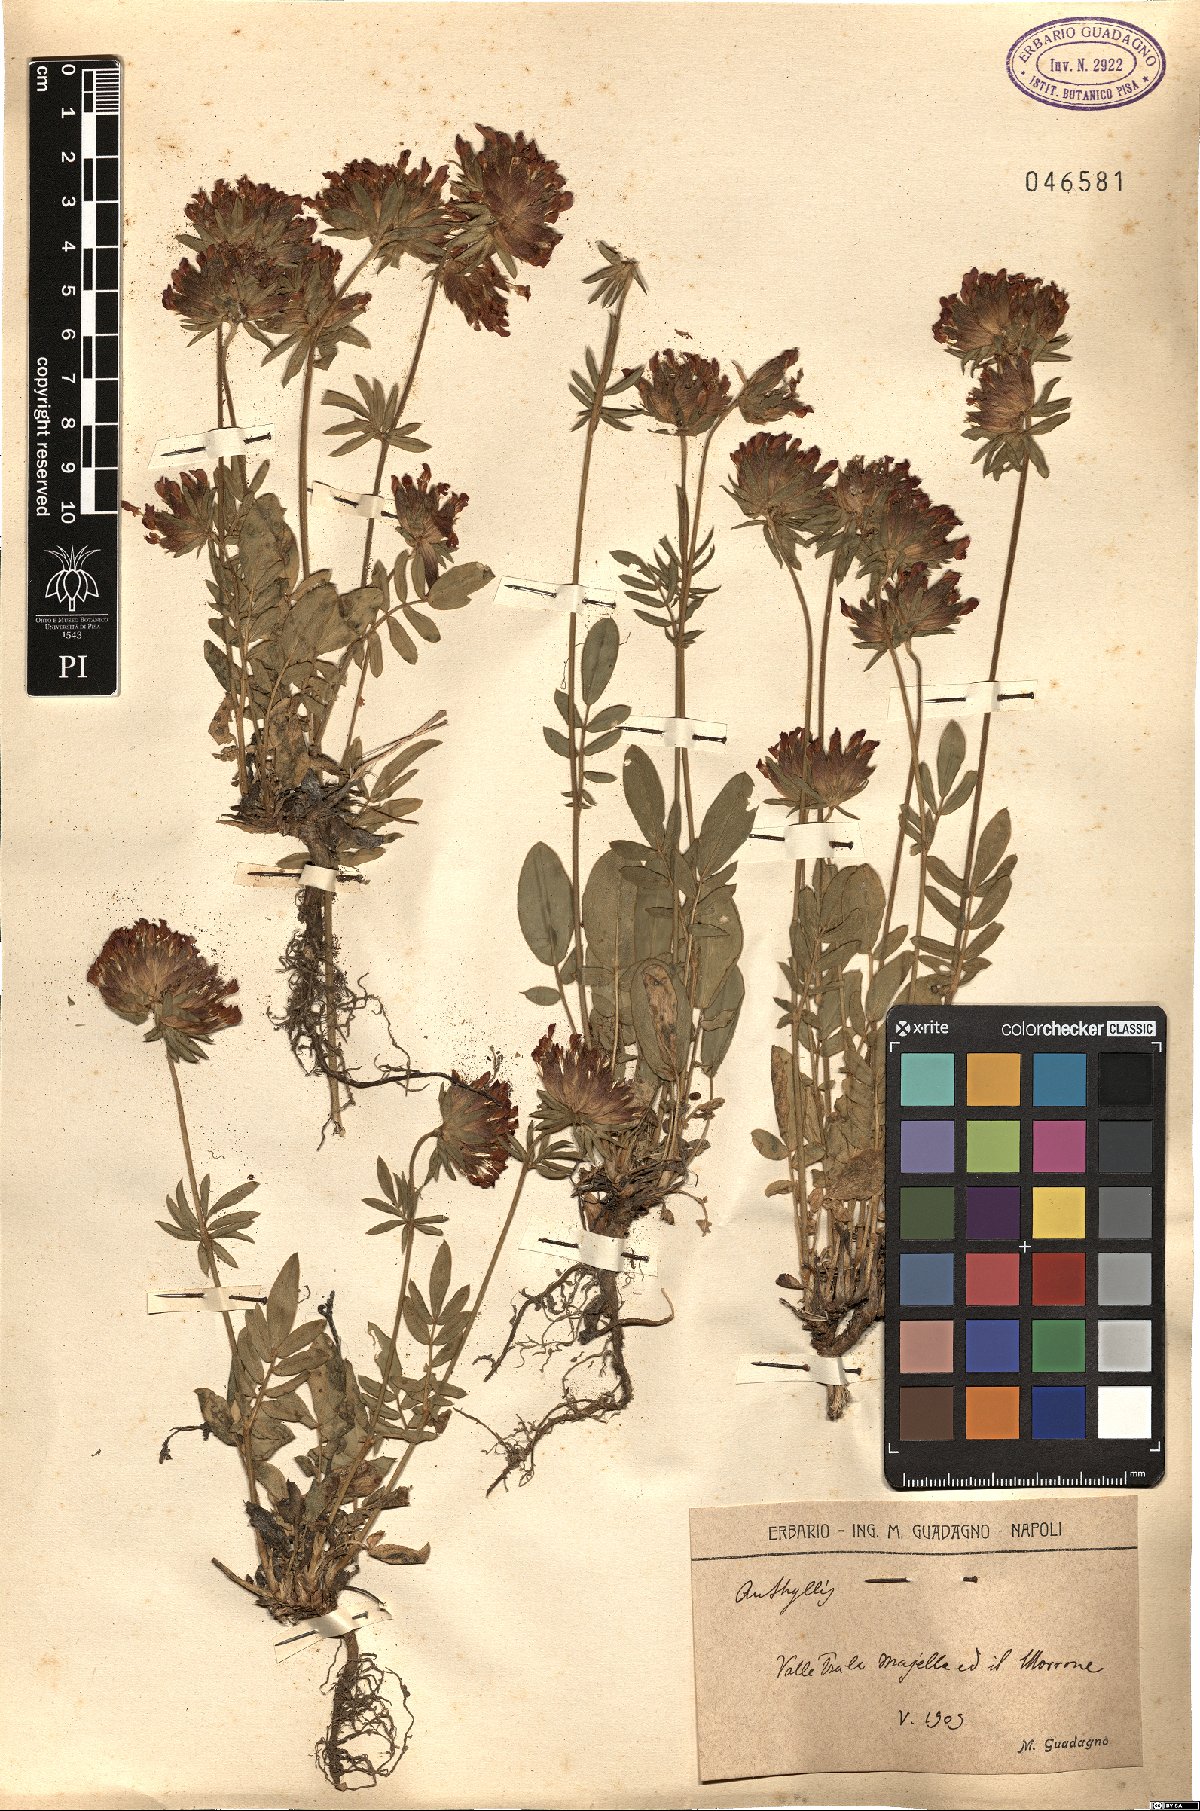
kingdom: Plantae
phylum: Tracheophyta
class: Magnoliopsida
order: Fabales
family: Fabaceae
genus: Anthyllis
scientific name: Anthyllis
